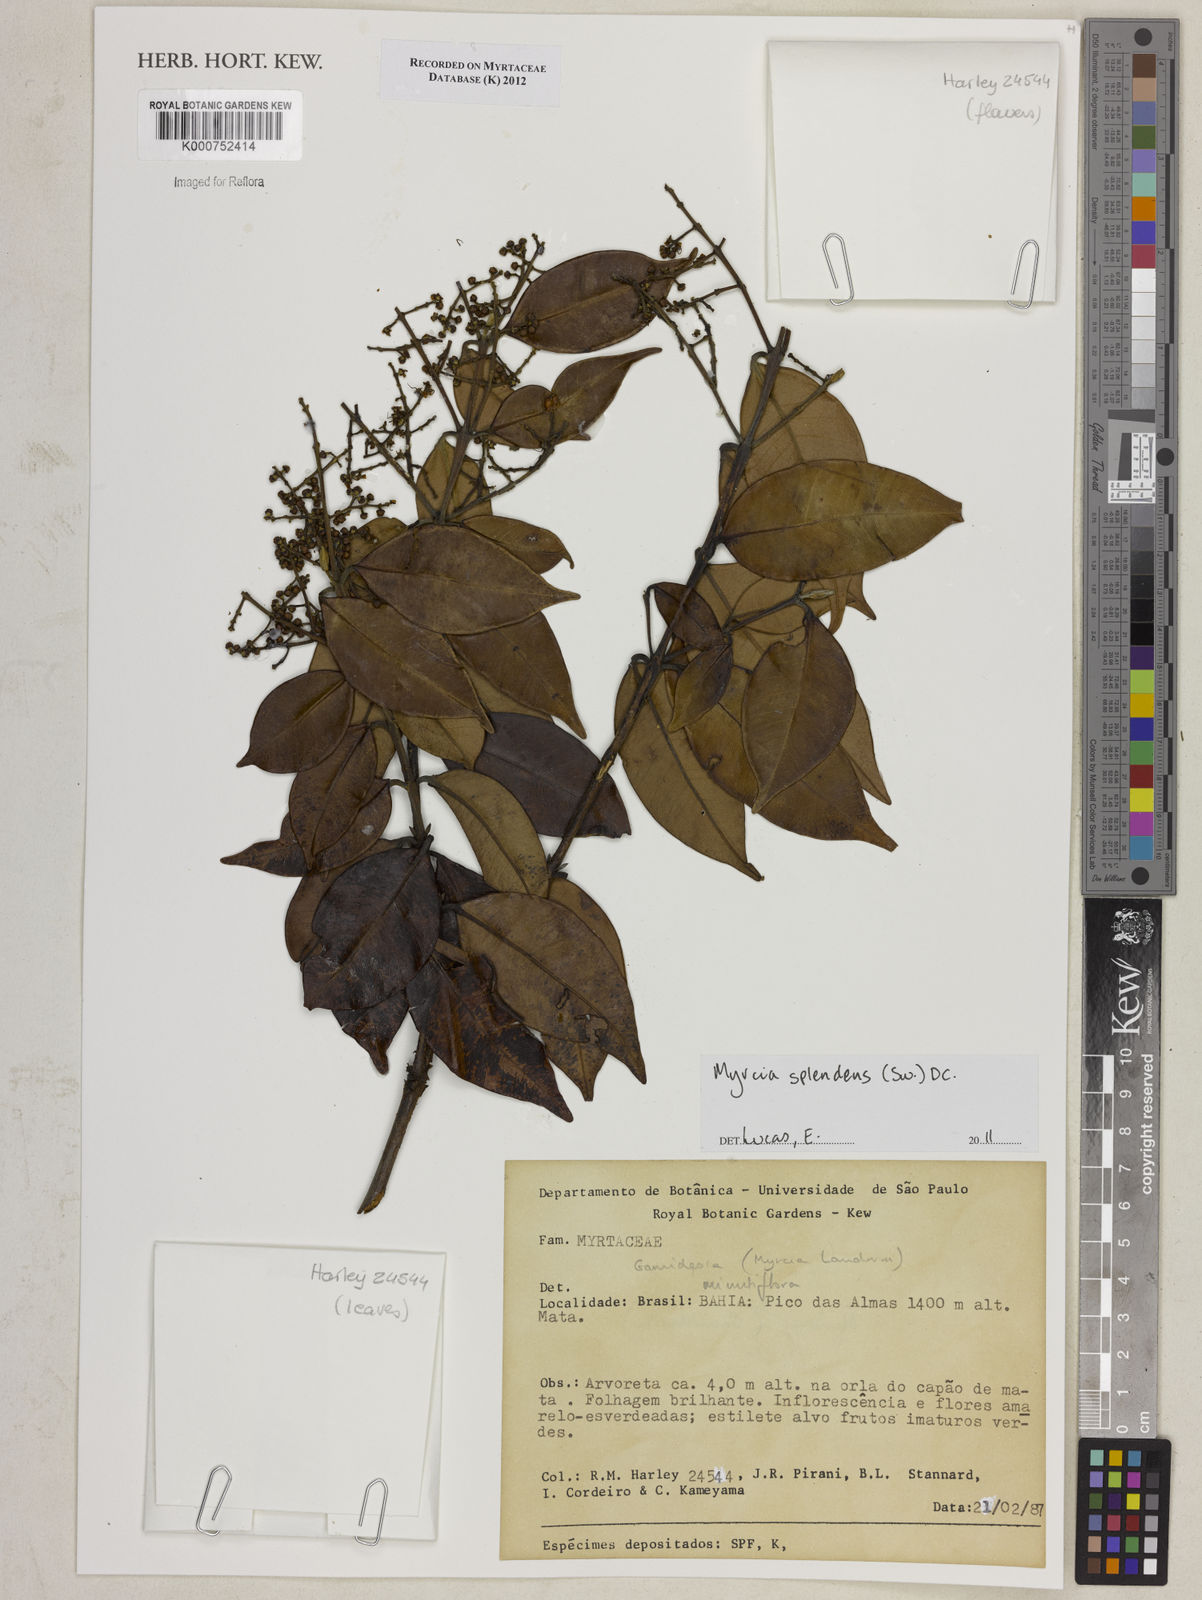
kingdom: Plantae
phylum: Tracheophyta
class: Magnoliopsida
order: Myrtales
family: Myrtaceae
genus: Myrcia
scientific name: Myrcia splendens
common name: Surinam cherry
